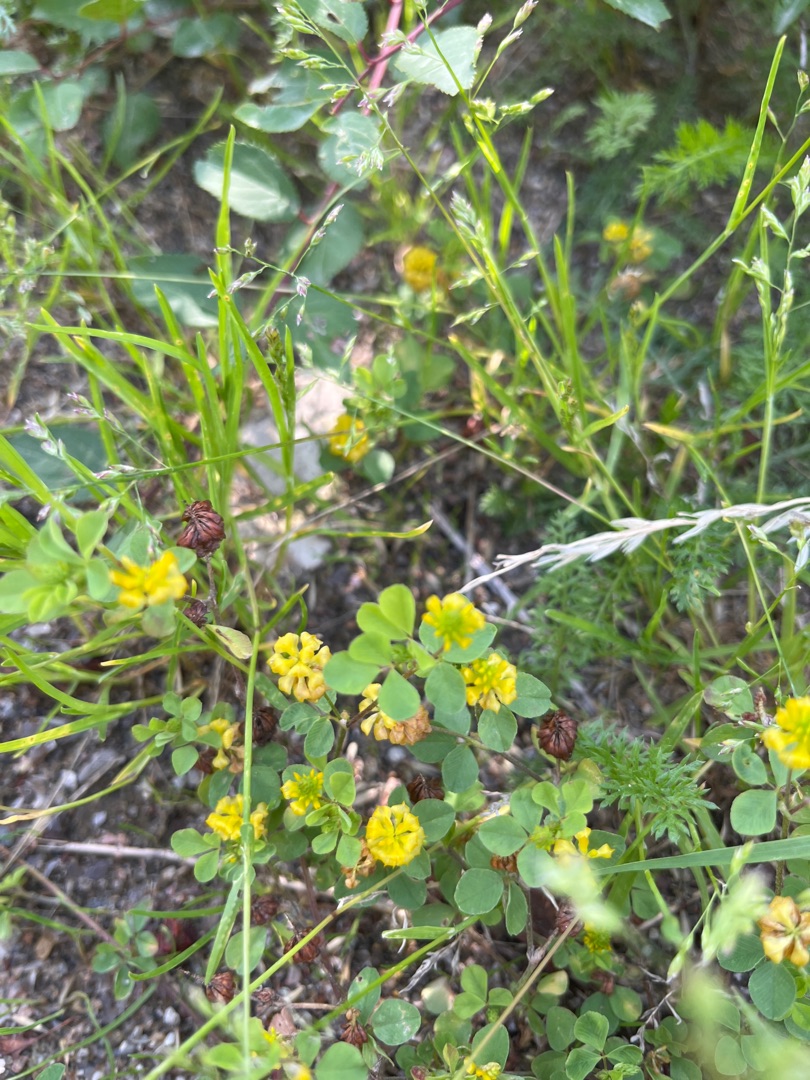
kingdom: Plantae
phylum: Tracheophyta
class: Magnoliopsida
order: Fabales
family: Fabaceae
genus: Trifolium
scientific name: Trifolium campestre
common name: Gul kløver
